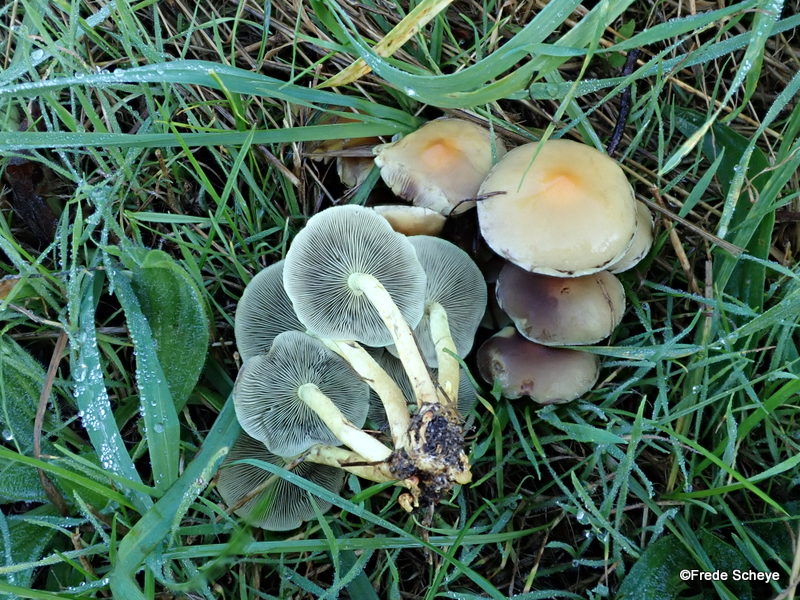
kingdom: Fungi
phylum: Basidiomycota
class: Agaricomycetes
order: Agaricales
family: Strophariaceae
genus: Hypholoma
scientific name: Hypholoma fasciculare
